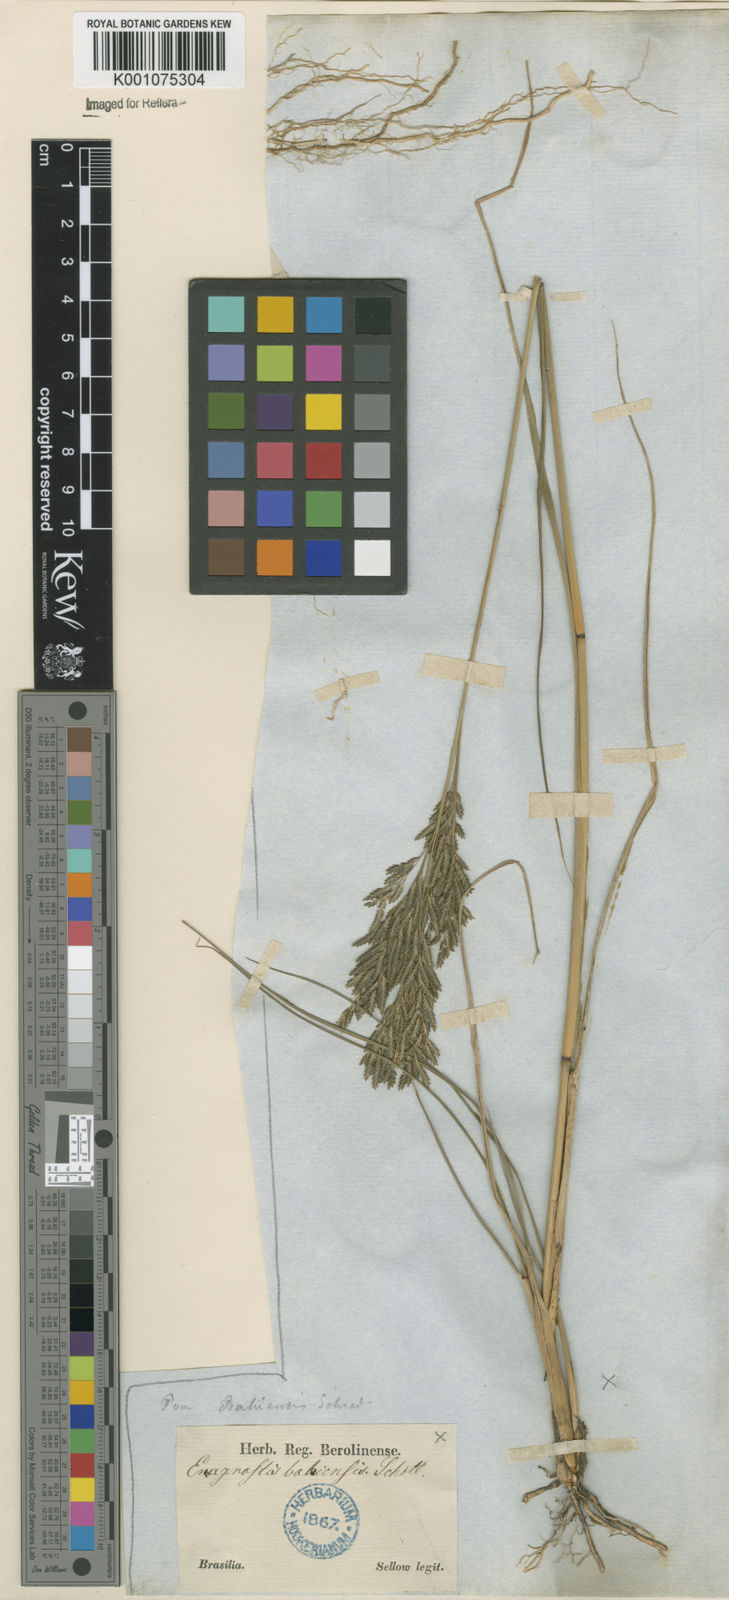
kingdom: Plantae
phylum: Tracheophyta
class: Liliopsida
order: Poales
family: Poaceae
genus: Eragrostis
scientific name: Eragrostis bahiensis
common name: Bahia lovegrass
